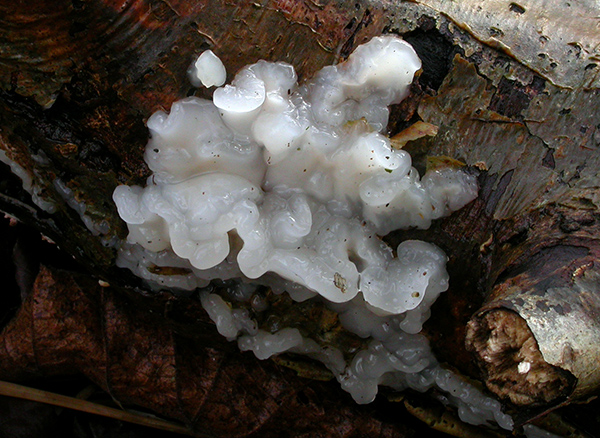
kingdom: Fungi
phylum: Basidiomycota
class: Agaricomycetes
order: Auriculariales
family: Auriculariaceae
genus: Exidia
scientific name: Exidia thuretiana
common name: hvidlig bævretop
